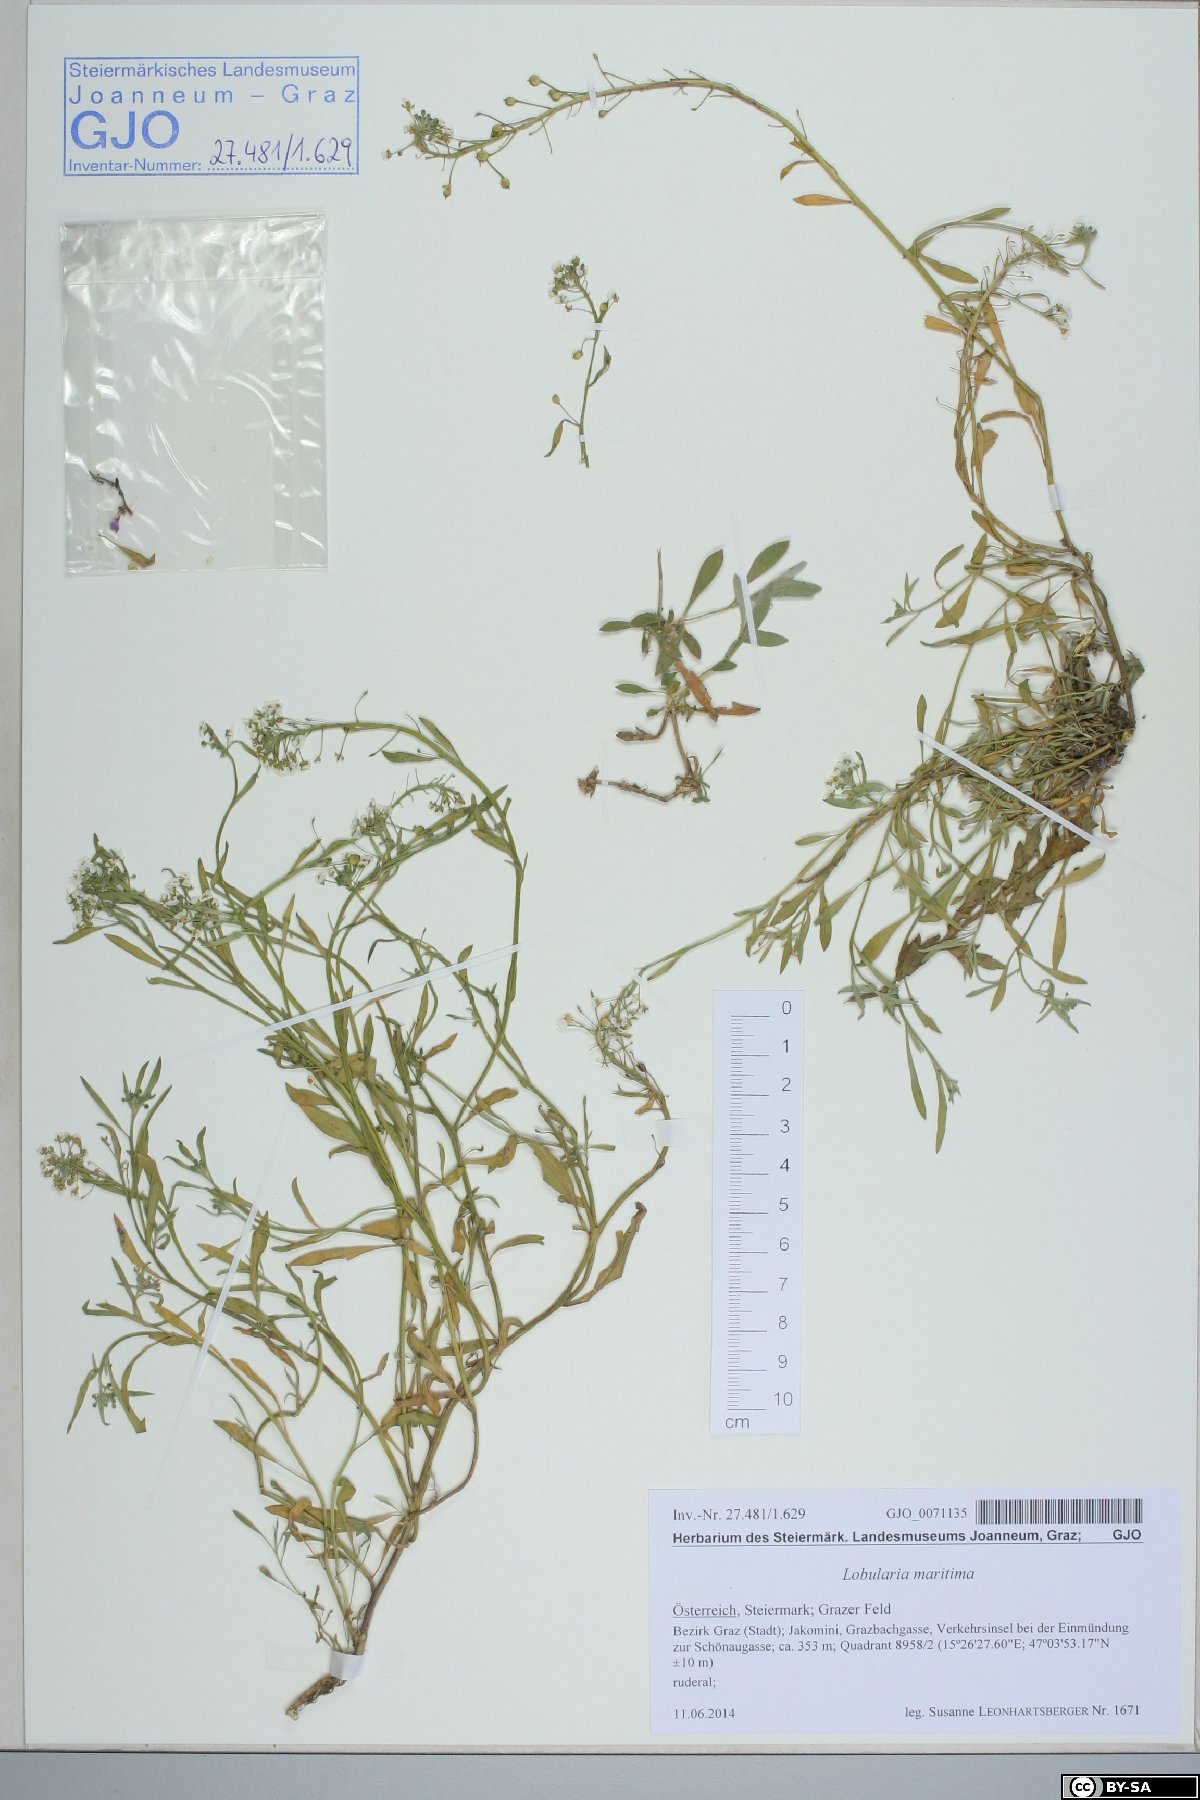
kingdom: Plantae
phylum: Tracheophyta
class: Magnoliopsida
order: Brassicales
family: Brassicaceae
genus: Lobularia
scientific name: Lobularia maritima
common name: Sweet alison
